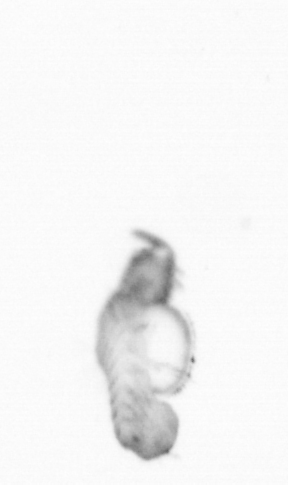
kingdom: Animalia
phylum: Annelida
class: Polychaeta
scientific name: Polychaeta
